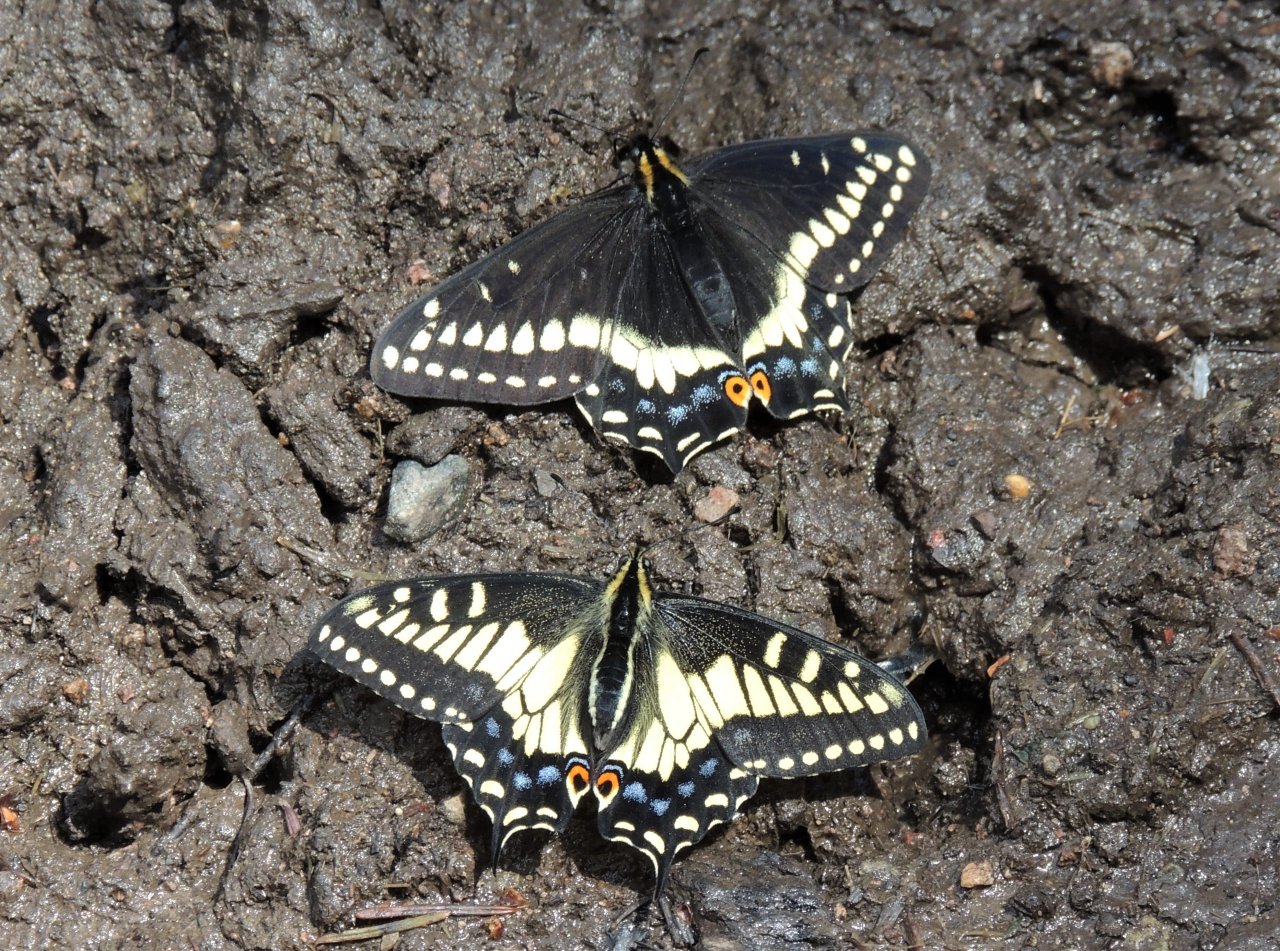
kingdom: Animalia
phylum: Arthropoda
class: Insecta
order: Lepidoptera
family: Papilionidae
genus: Papilio
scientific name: Papilio indra
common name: Indra Swallowtail
